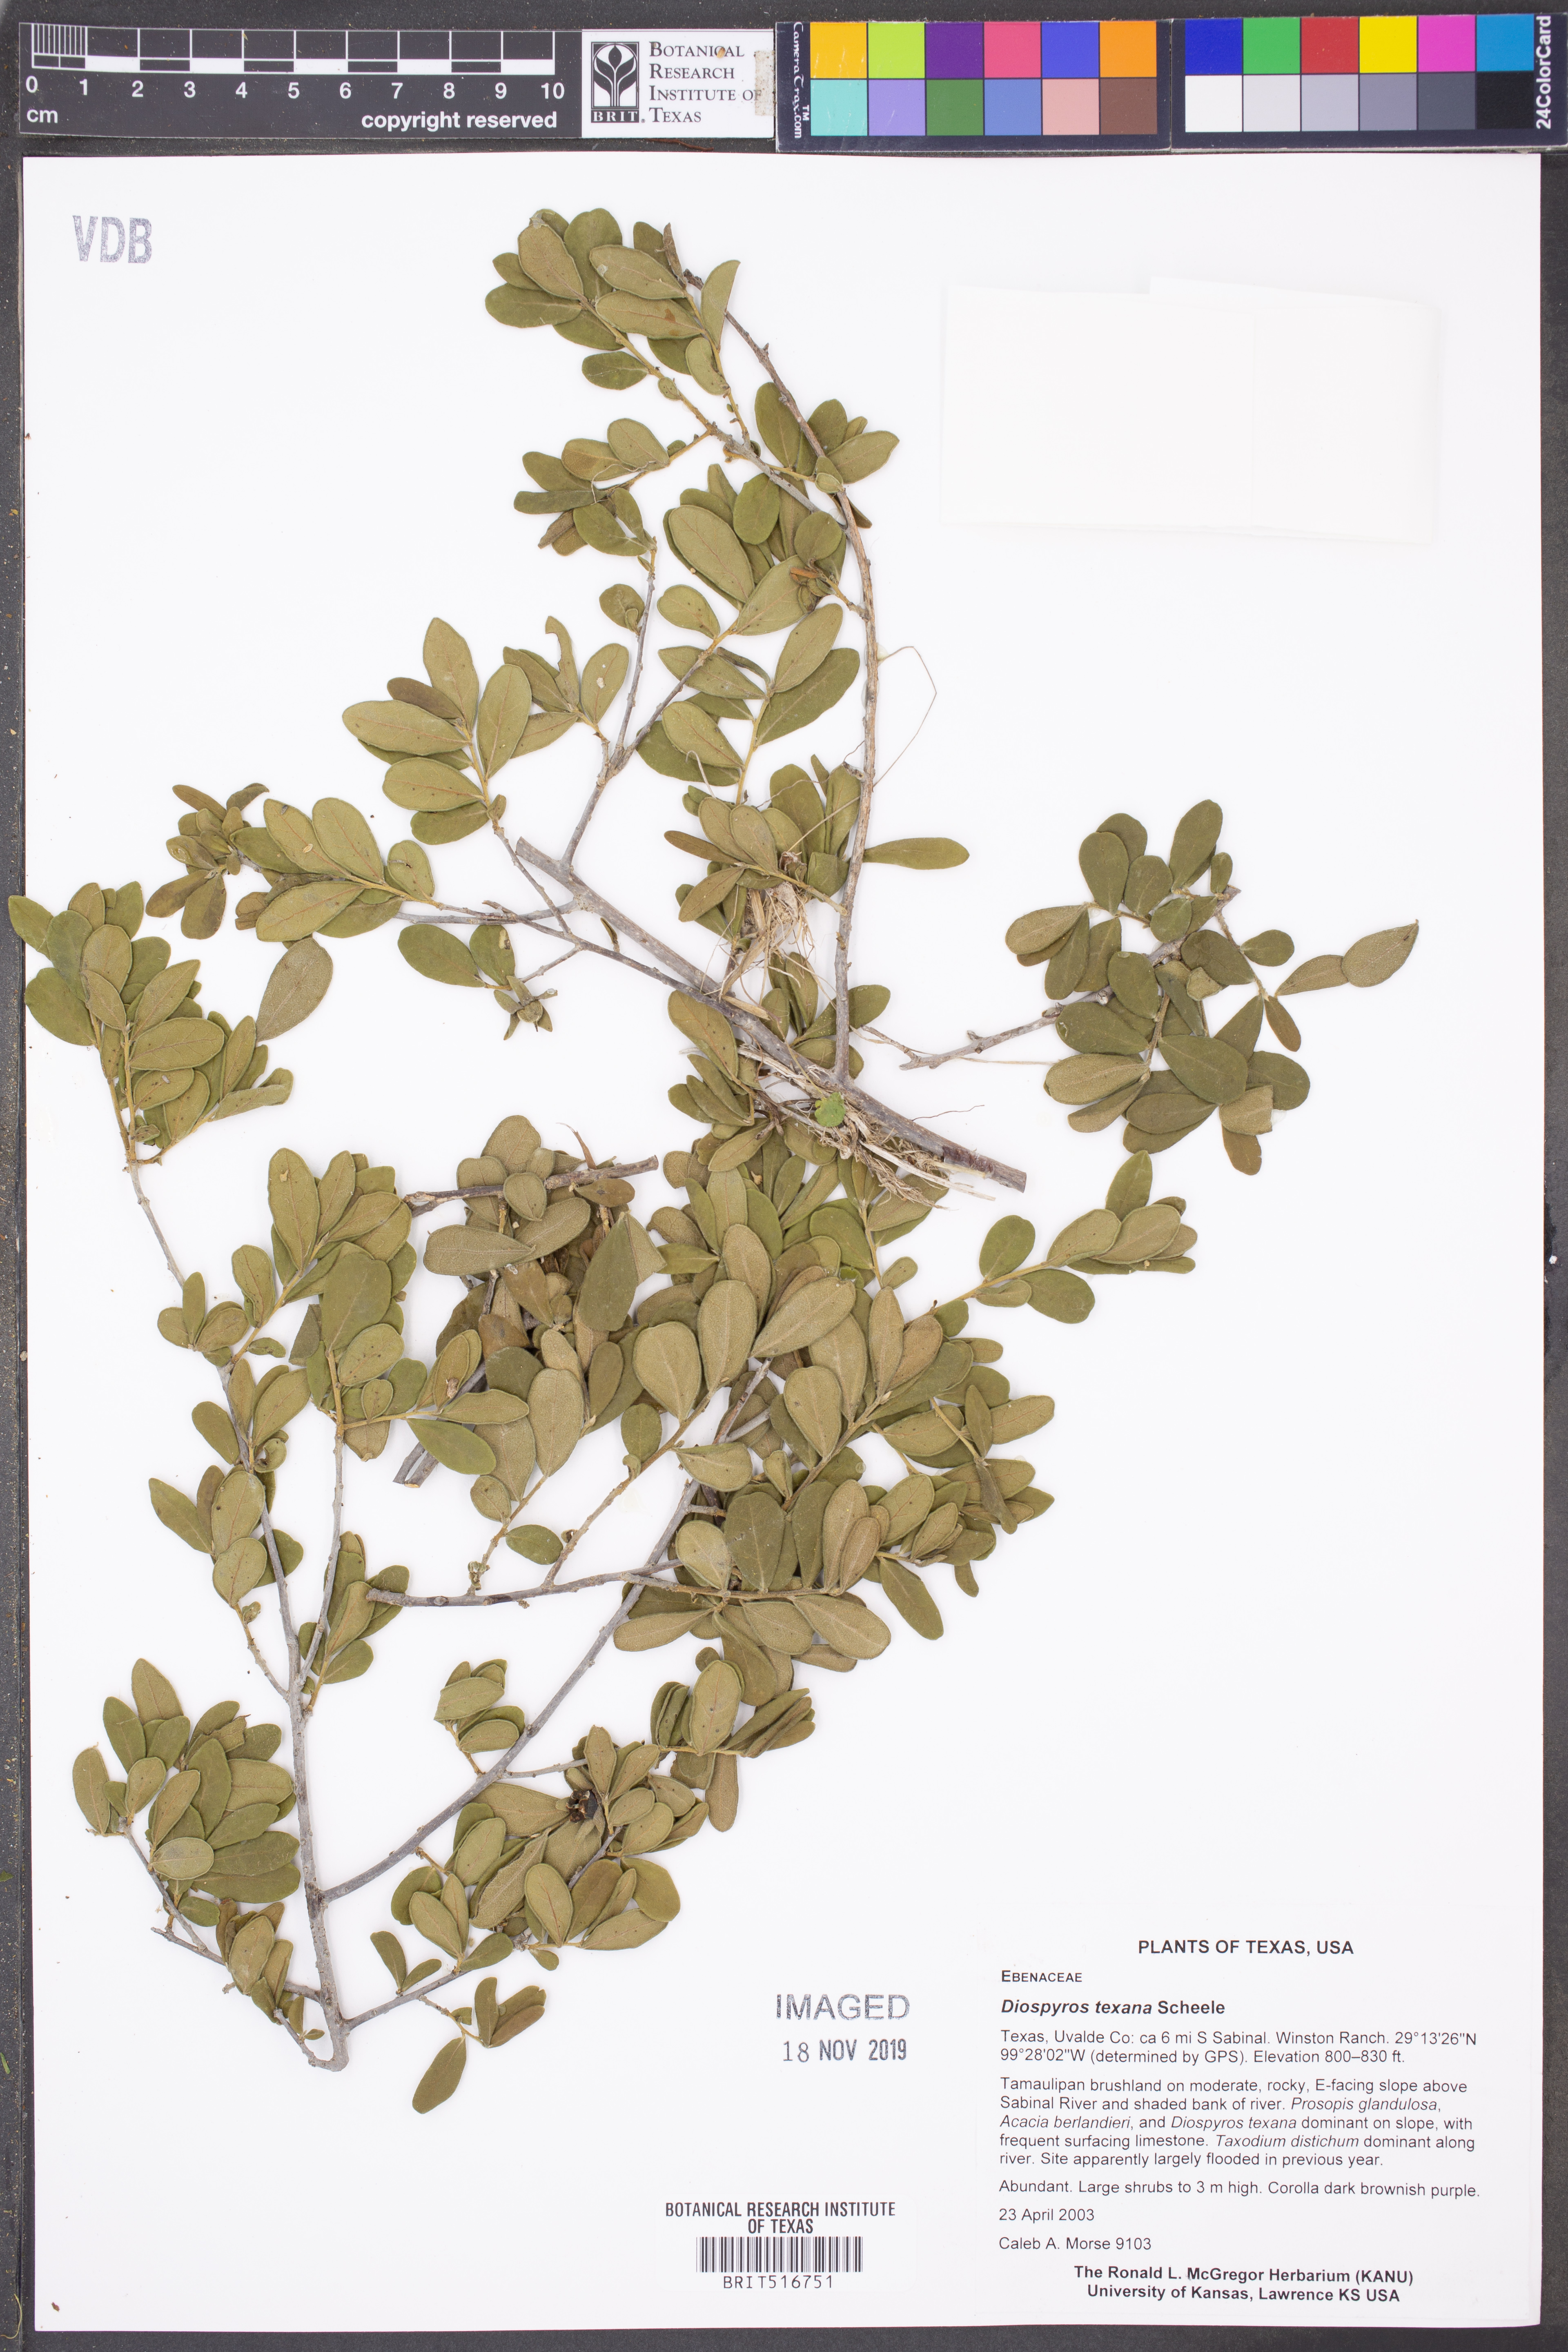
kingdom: Plantae
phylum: Tracheophyta
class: Magnoliopsida
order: Ericales
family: Ebenaceae
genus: Diospyros
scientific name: Diospyros texana
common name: Texas persimmon
